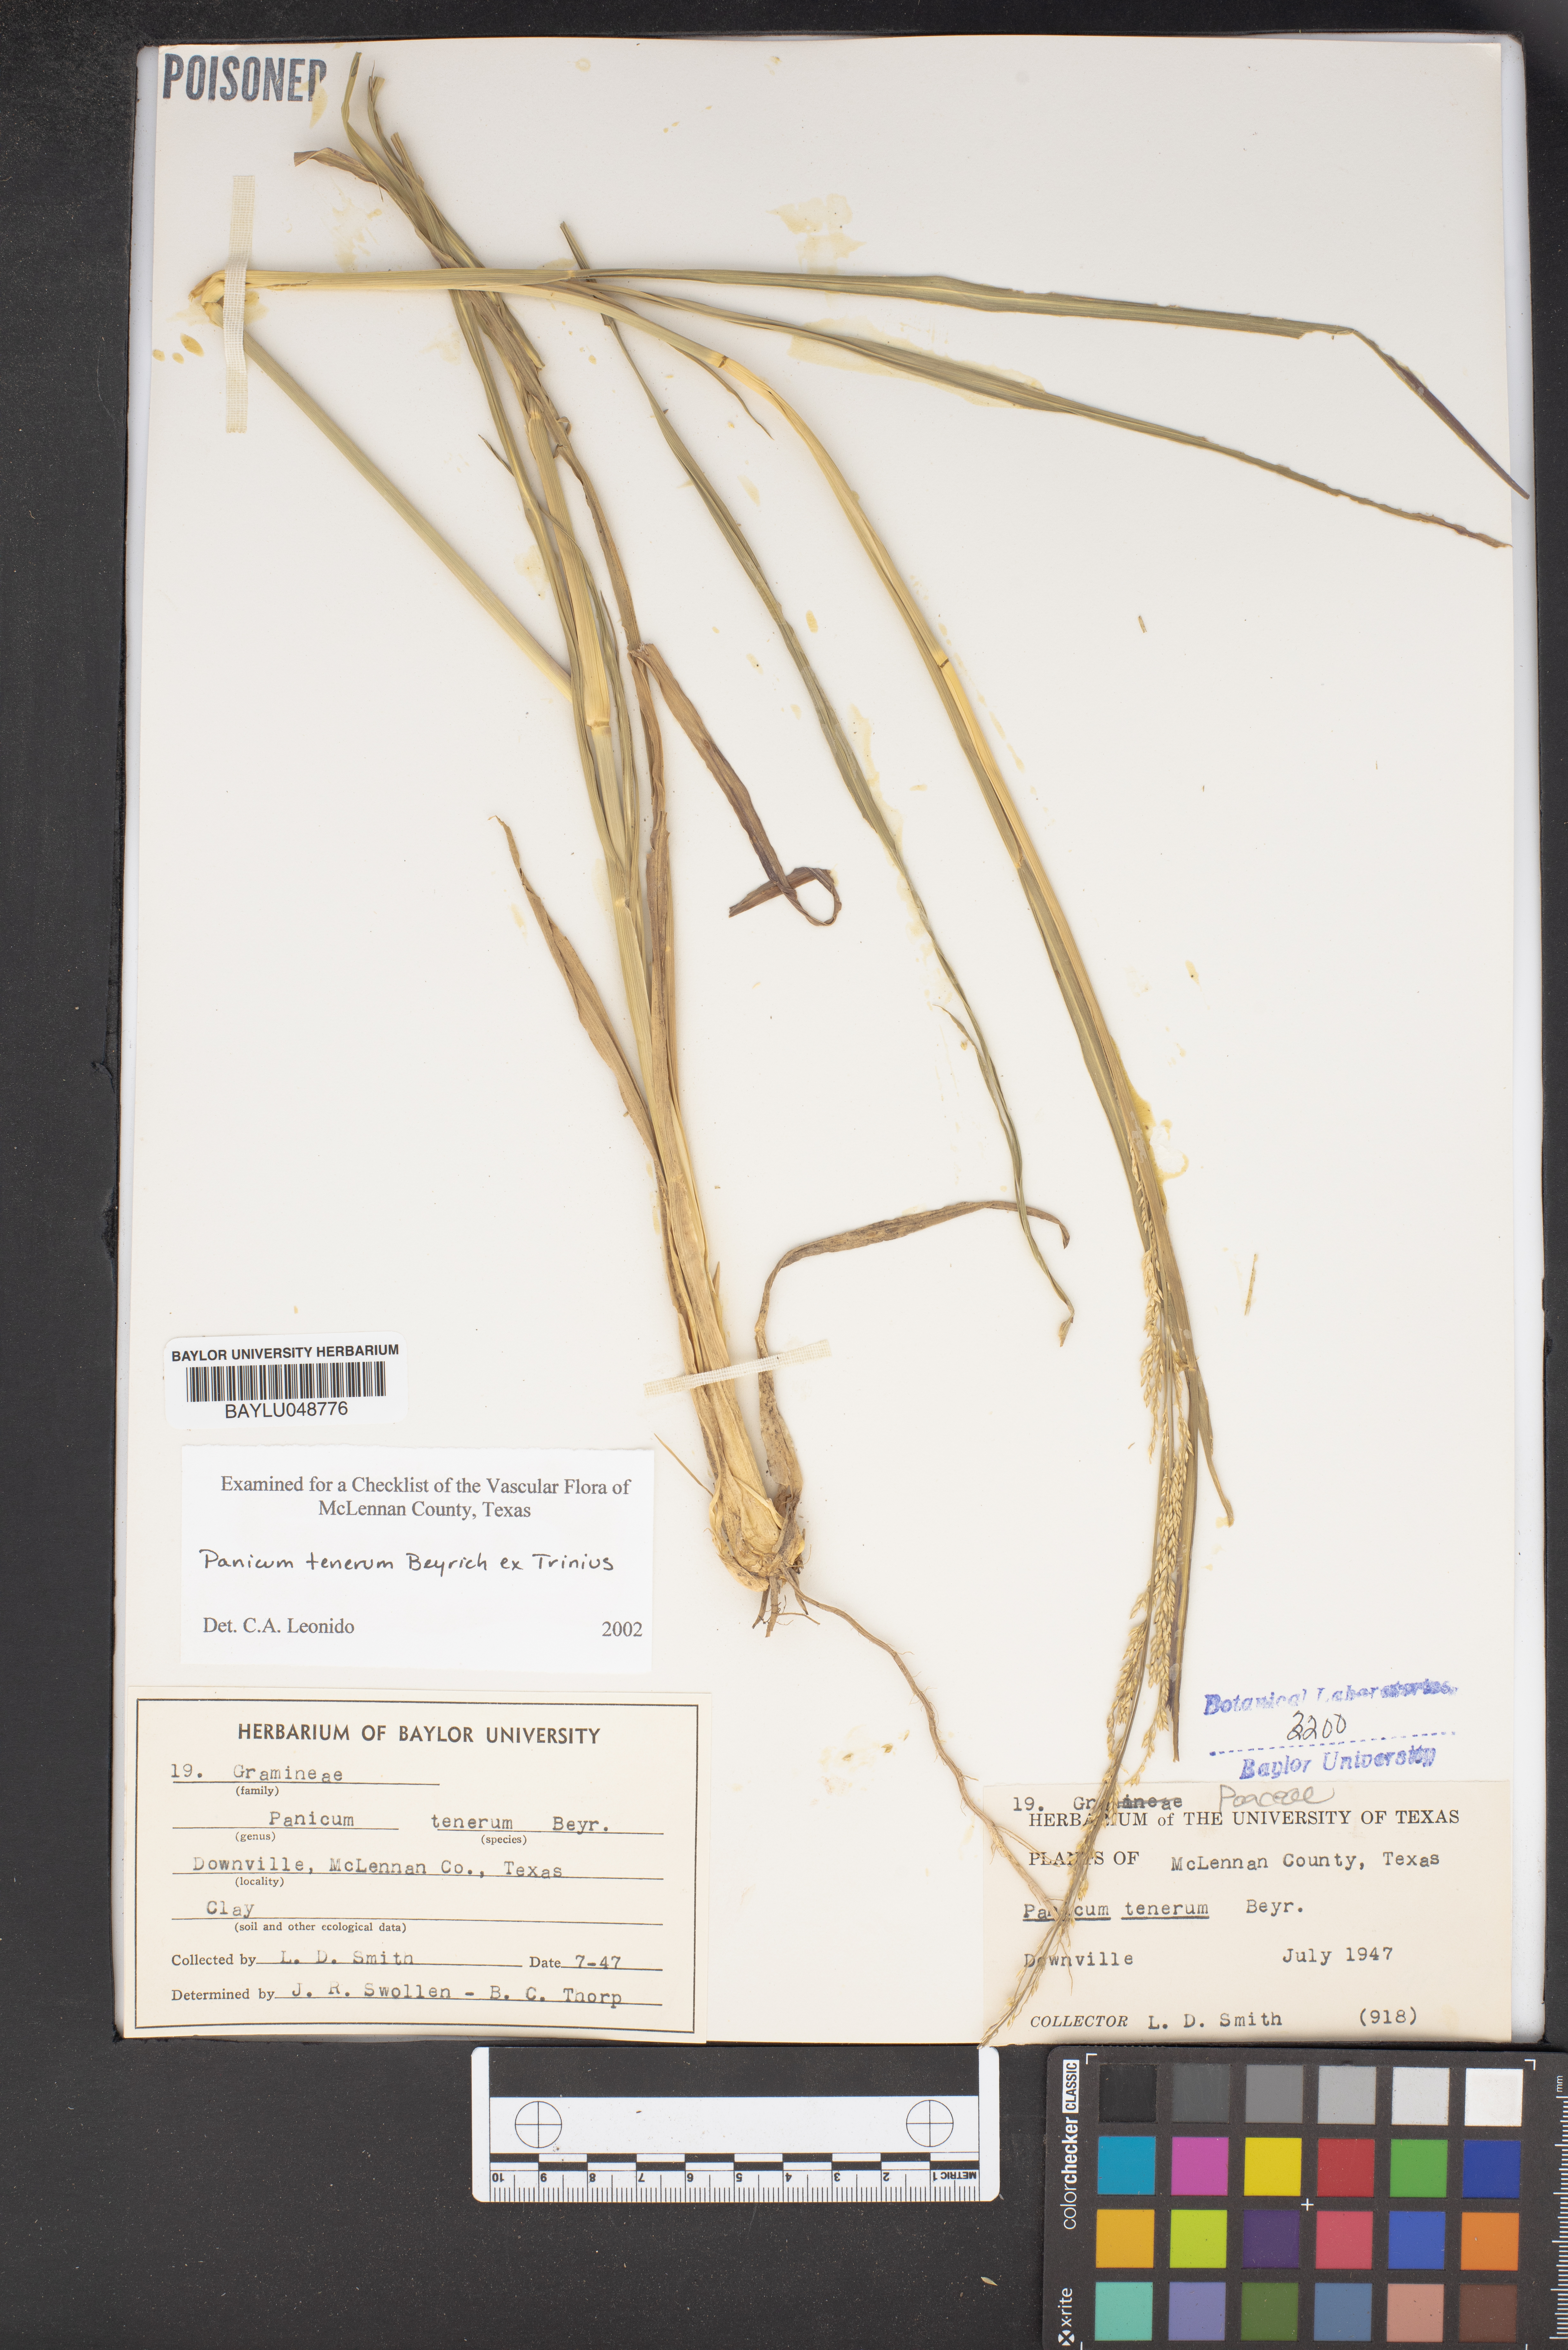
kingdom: Plantae
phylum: Tracheophyta
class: Liliopsida
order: Poales
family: Poaceae
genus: Coleataenia
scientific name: Coleataenia tenera
